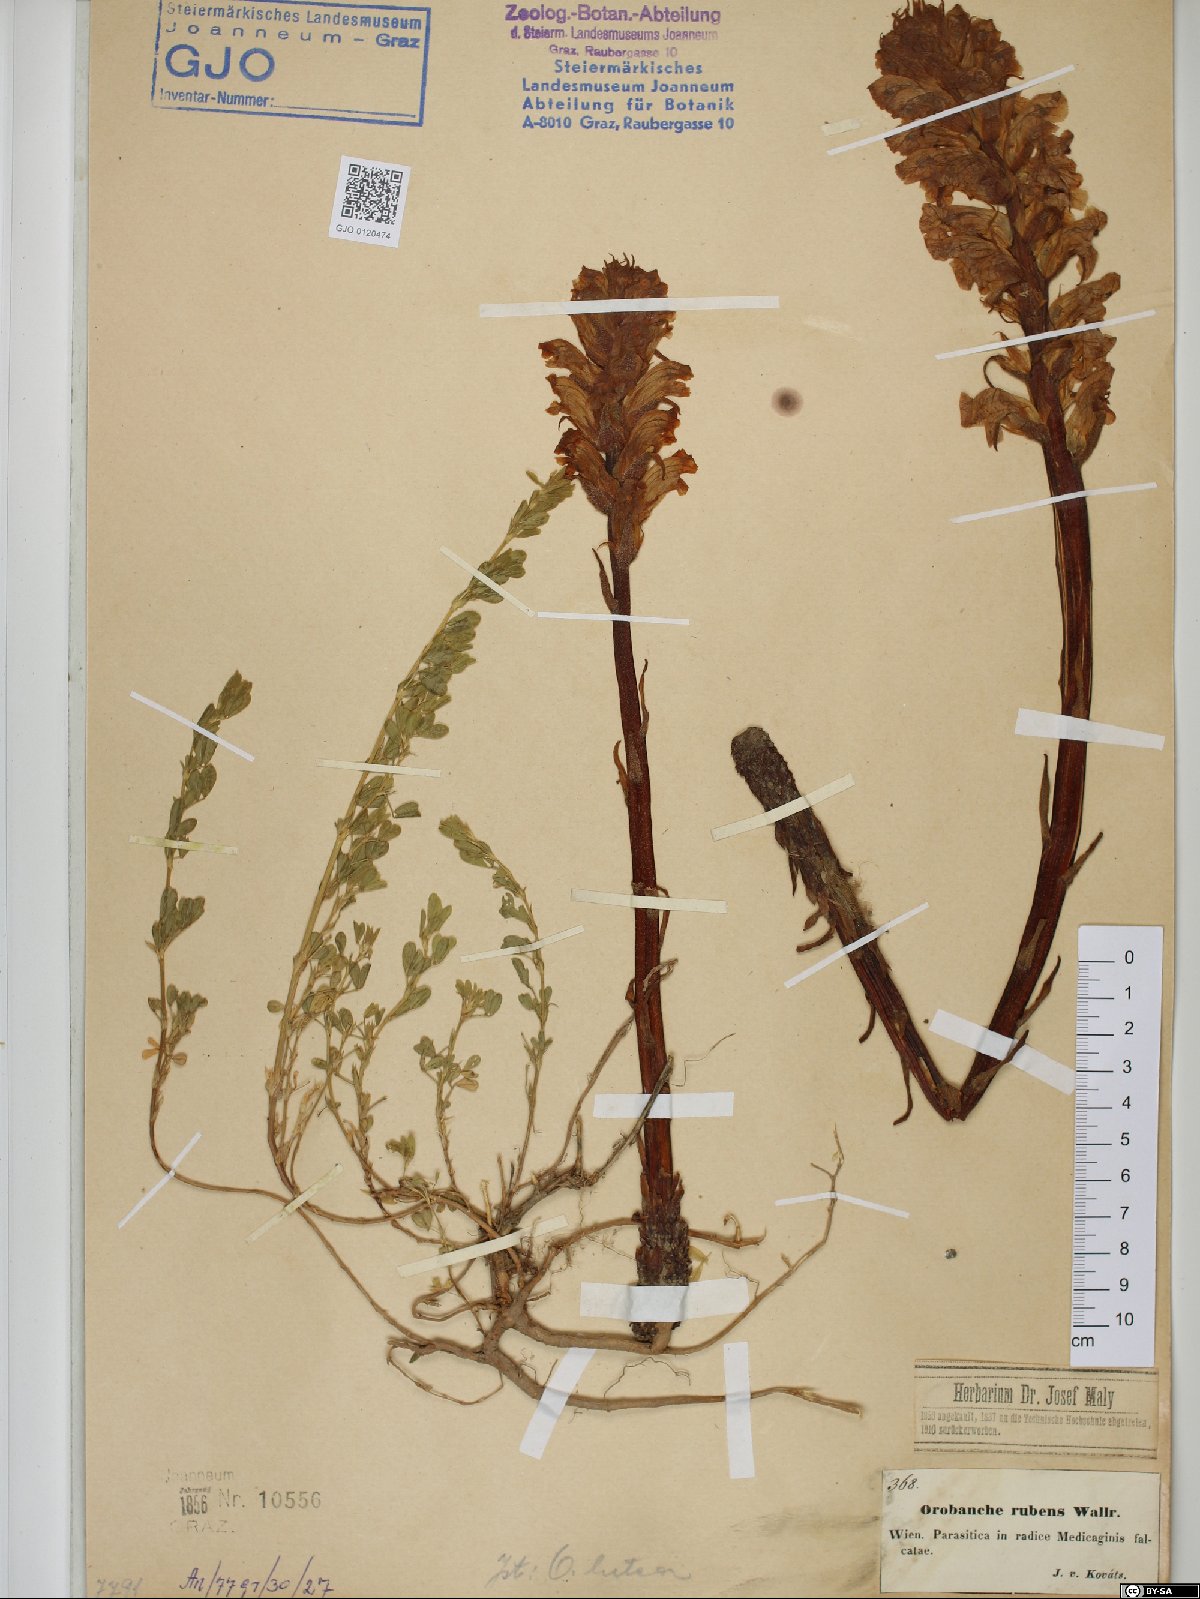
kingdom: Plantae
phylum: Tracheophyta
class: Magnoliopsida
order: Lamiales
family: Orobanchaceae
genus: Orobanche
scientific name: Orobanche lutea
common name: Yellow broomrape
